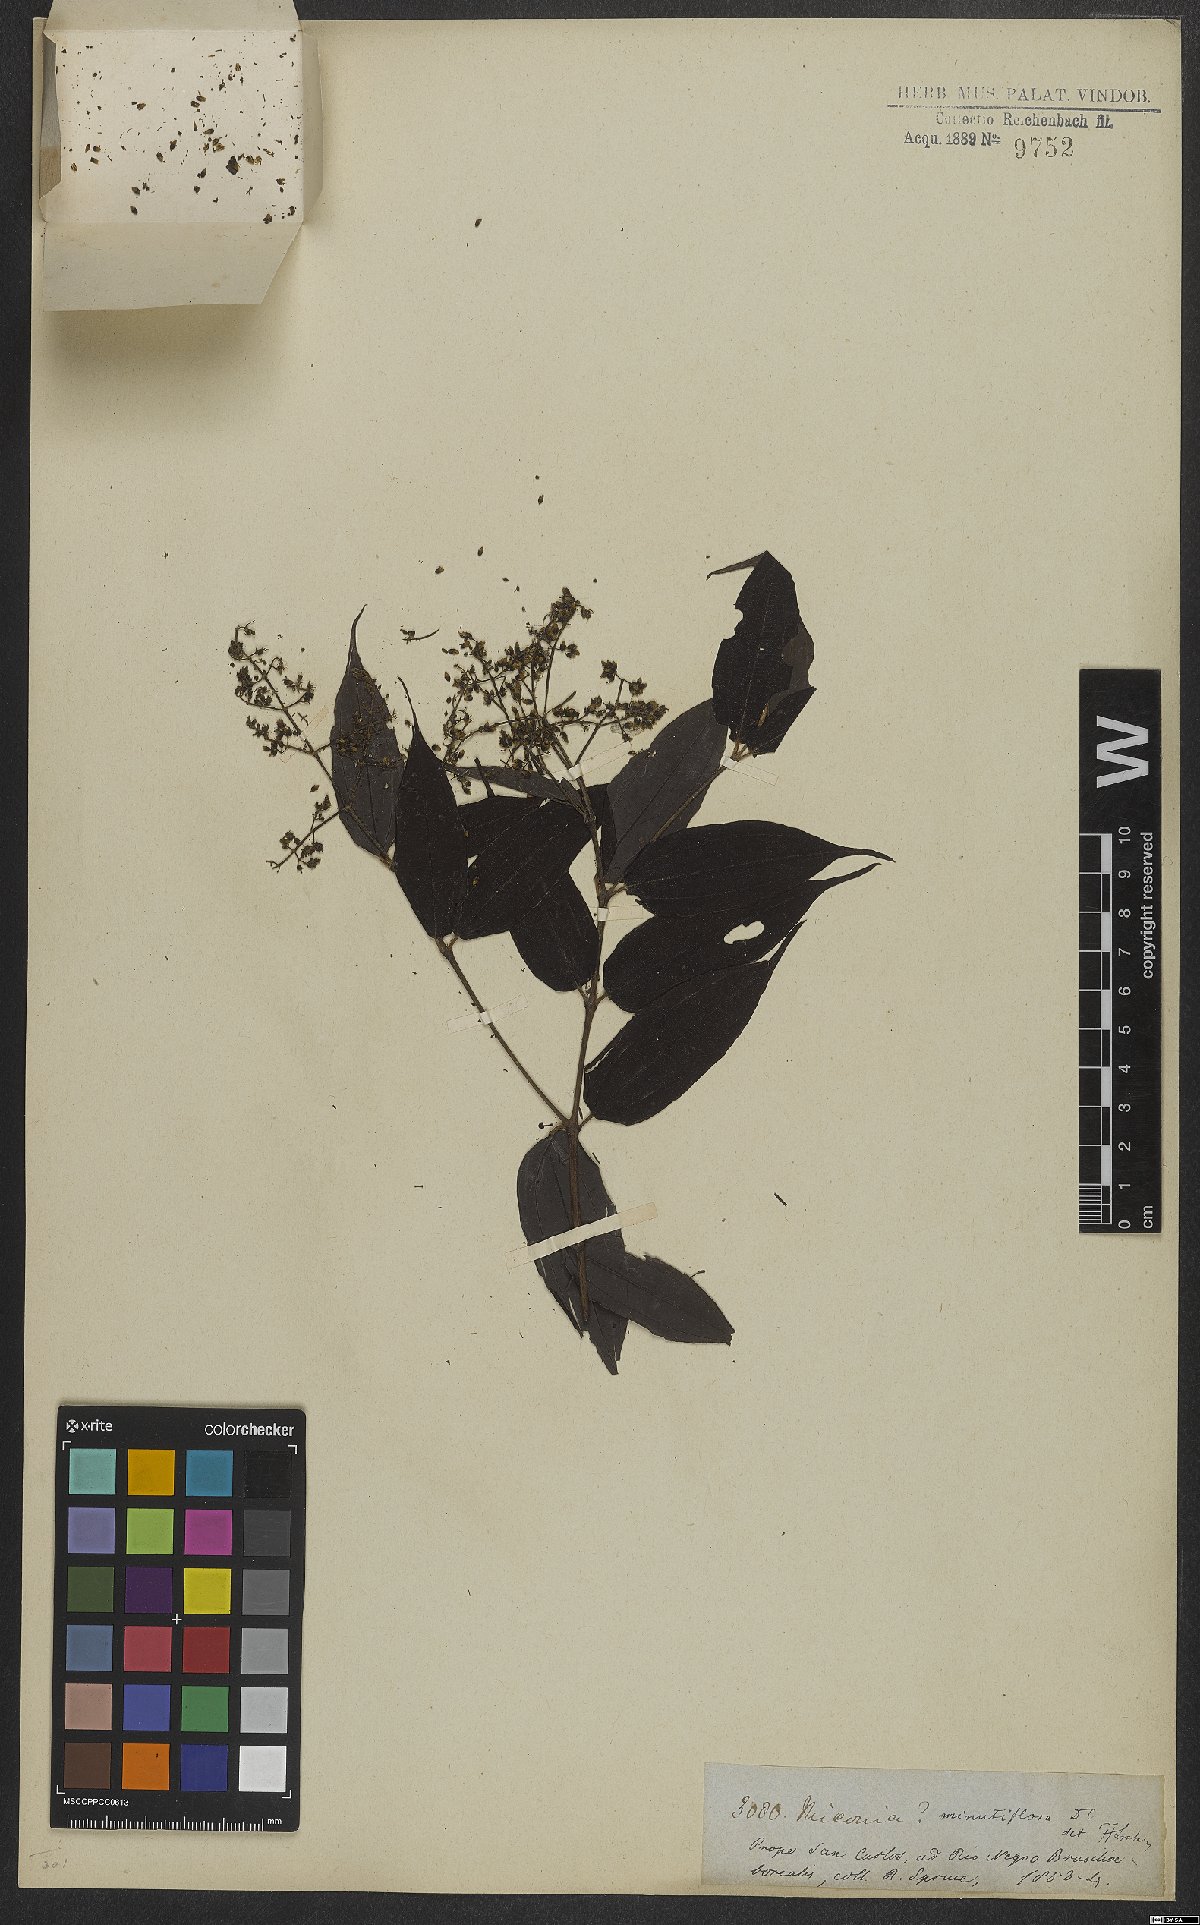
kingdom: Plantae
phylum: Tracheophyta
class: Magnoliopsida
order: Myrtales
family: Melastomataceae
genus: Miconia
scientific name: Miconia minutiflora
